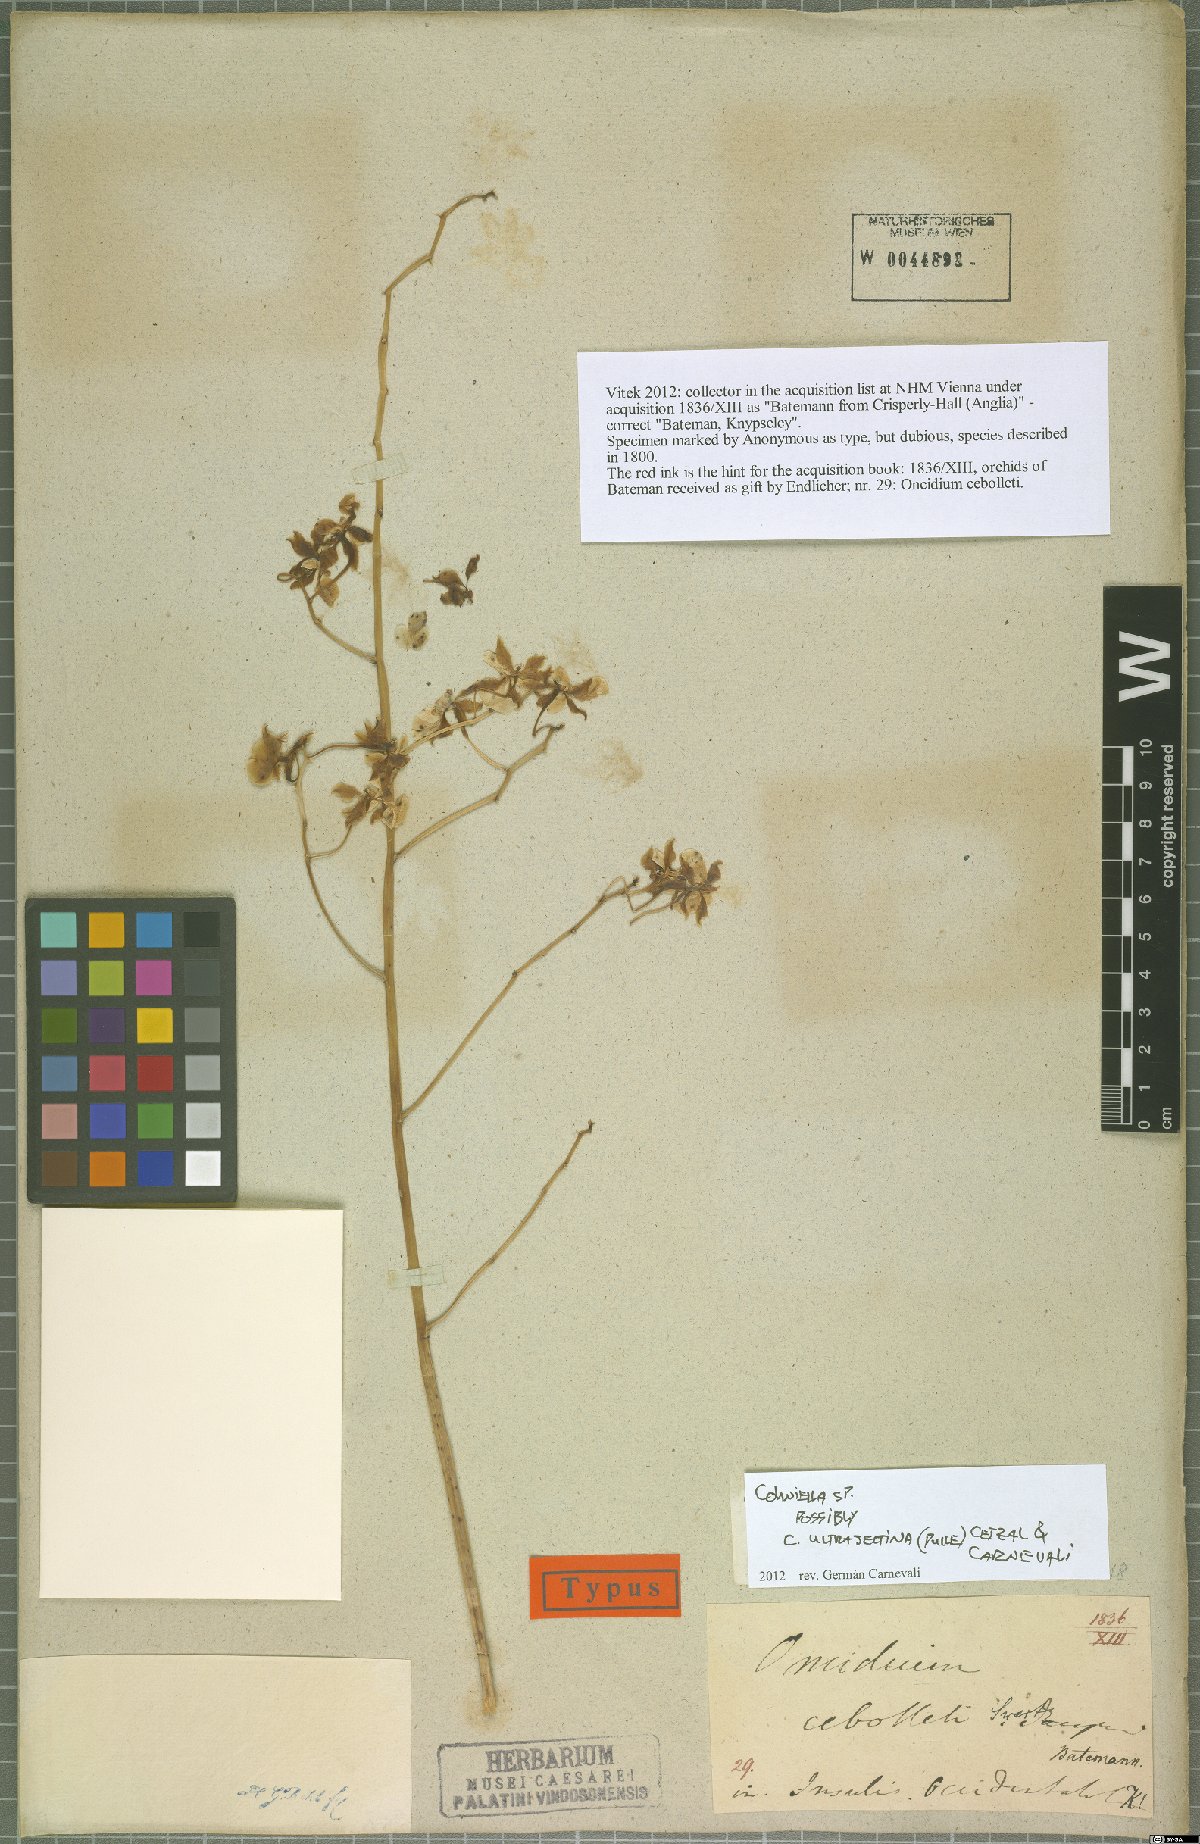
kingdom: Plantae
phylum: Chlorophyta
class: Chlorophyceae
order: Sphaeropleales
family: Scenedesmaceae
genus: Cohniella
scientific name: Cohniella
